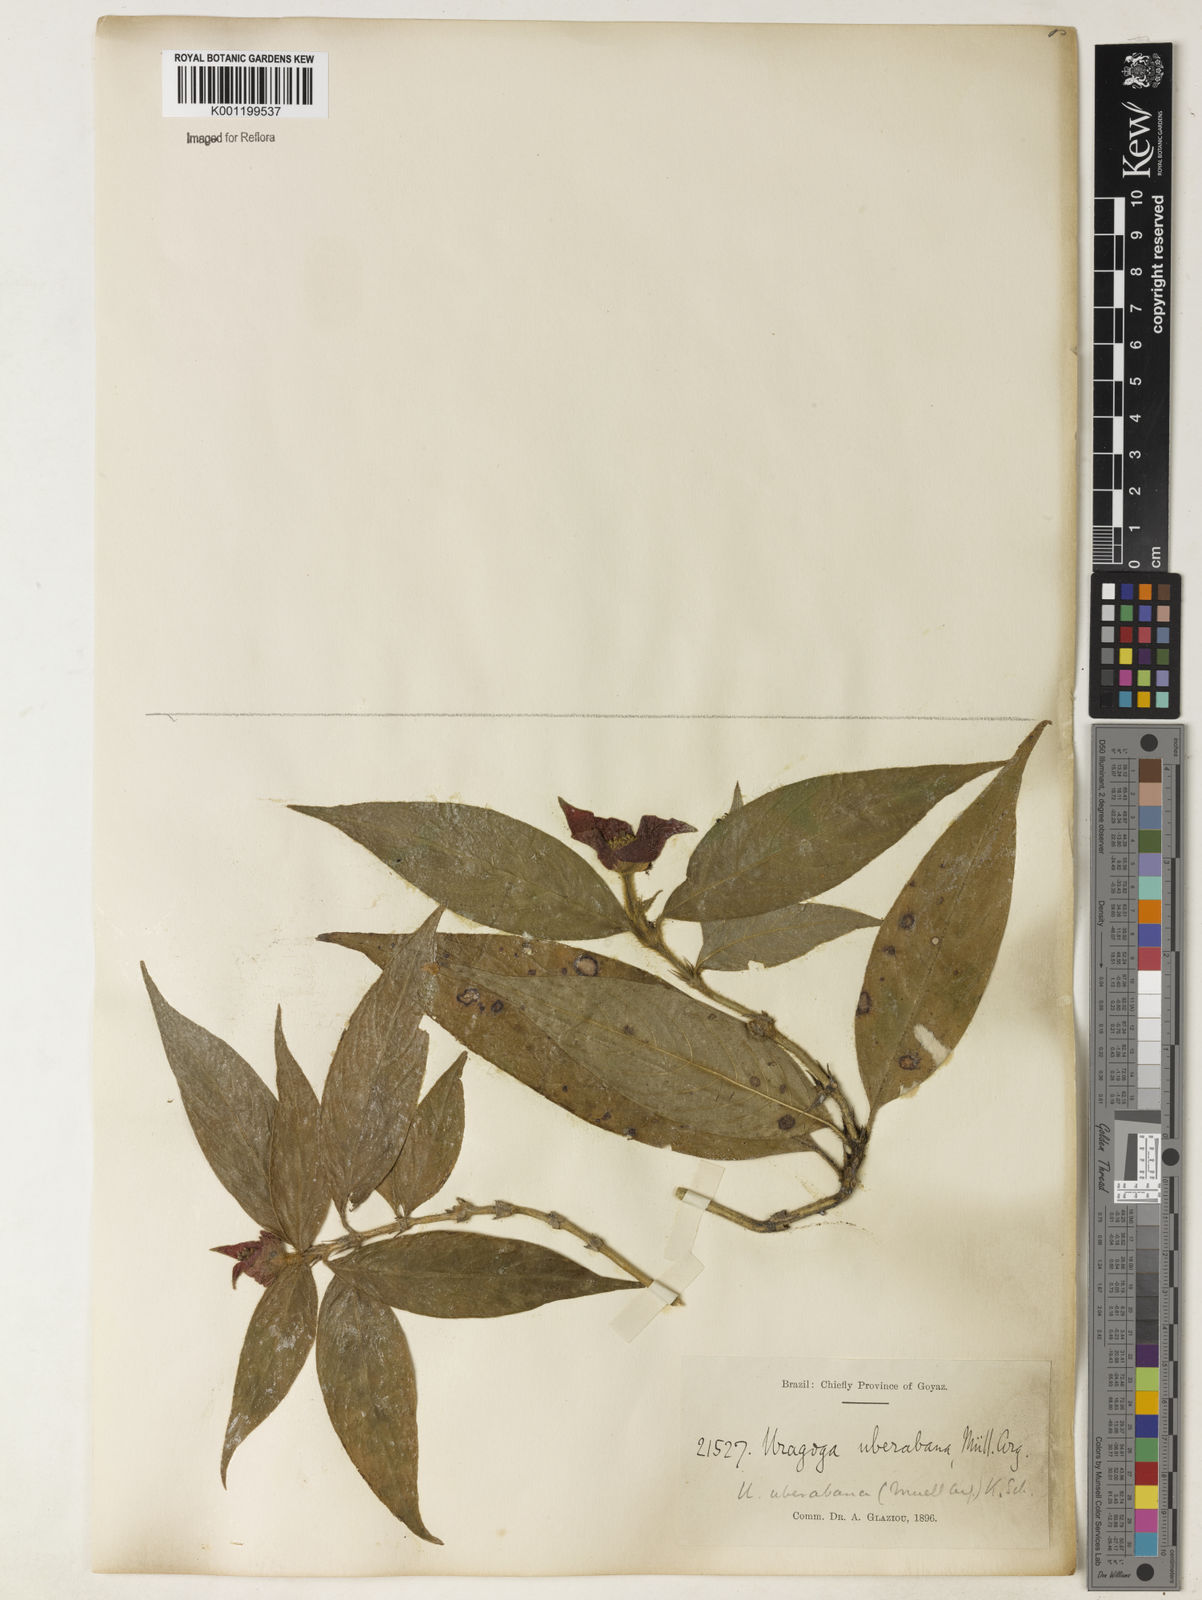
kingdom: Plantae
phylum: Tracheophyta
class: Magnoliopsida
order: Gentianales
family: Rubiaceae
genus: Psychotria
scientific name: Psychotria
